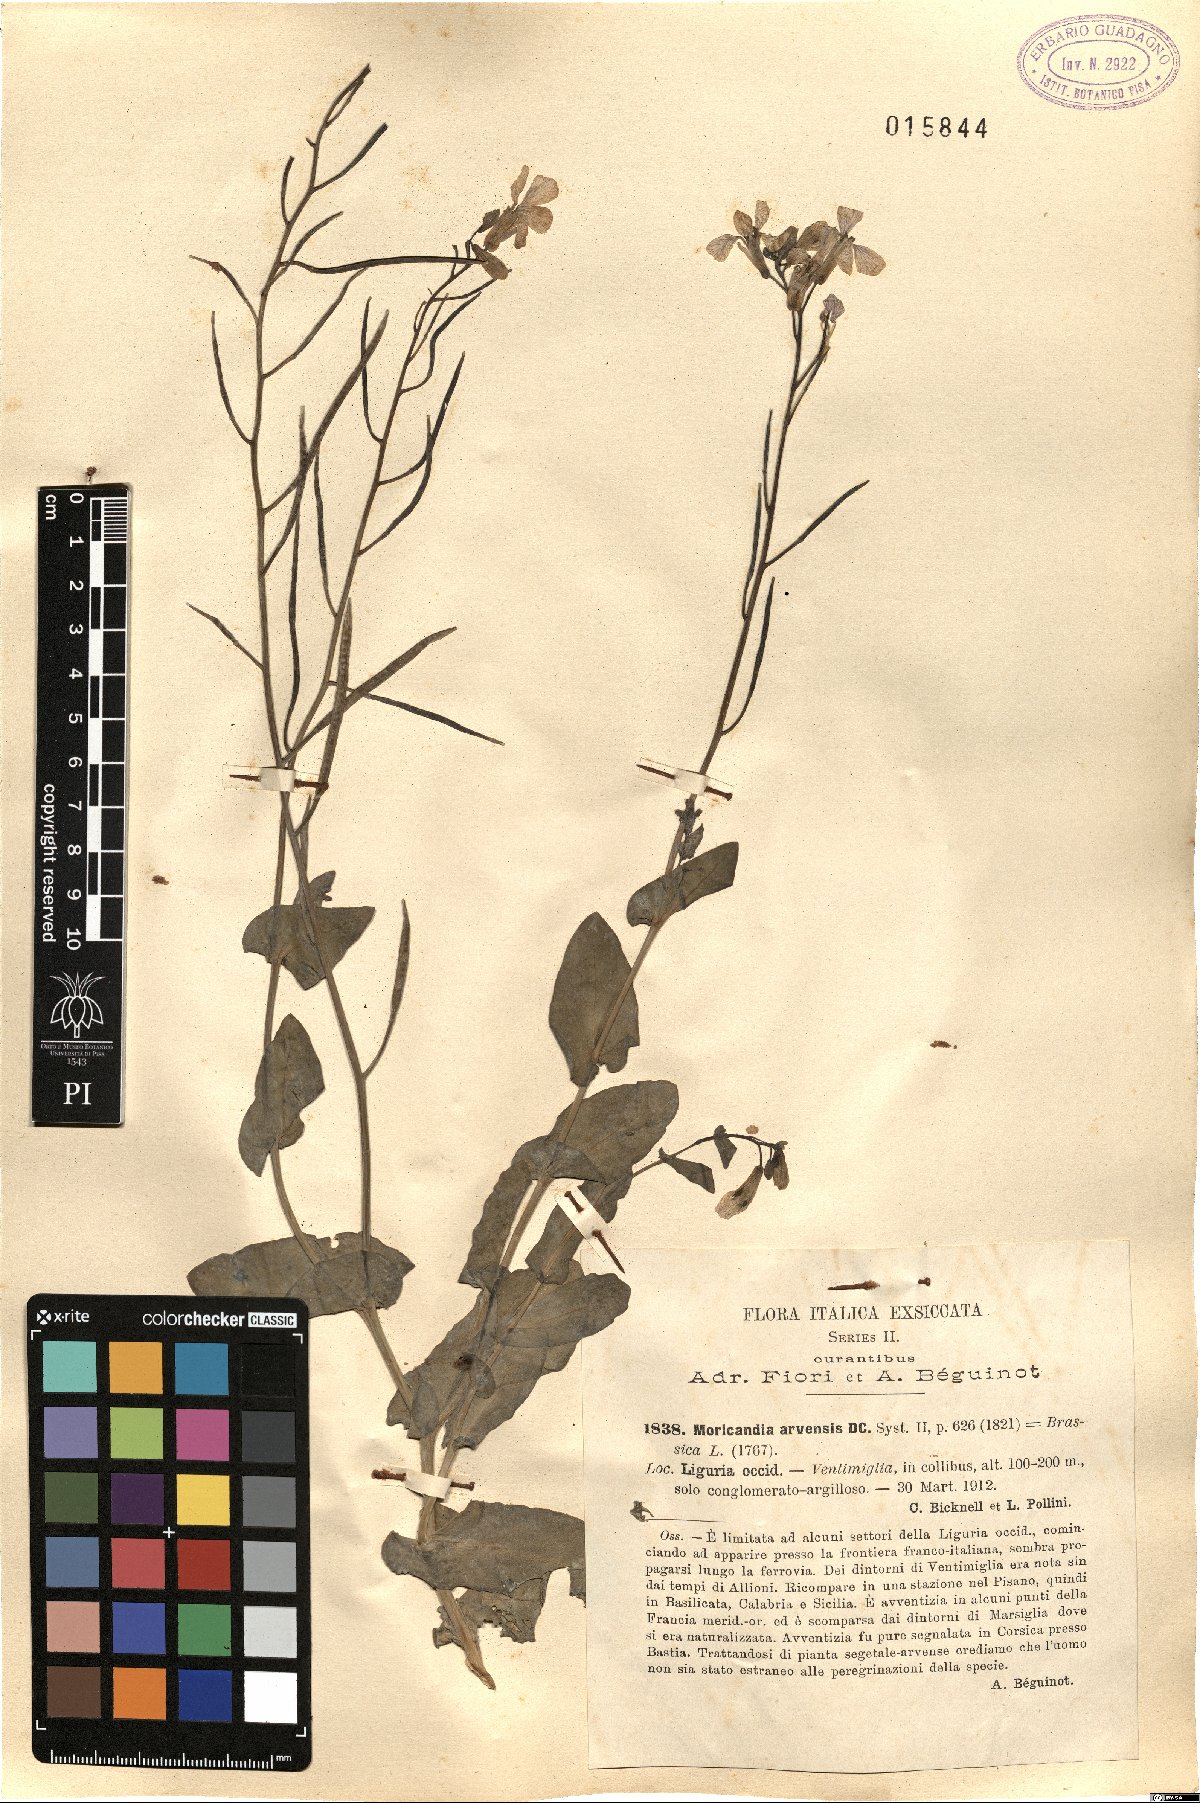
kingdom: Plantae
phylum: Tracheophyta
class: Magnoliopsida
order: Brassicales
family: Brassicaceae
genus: Moricandia
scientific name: Moricandia arvensis
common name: Purple mistress
